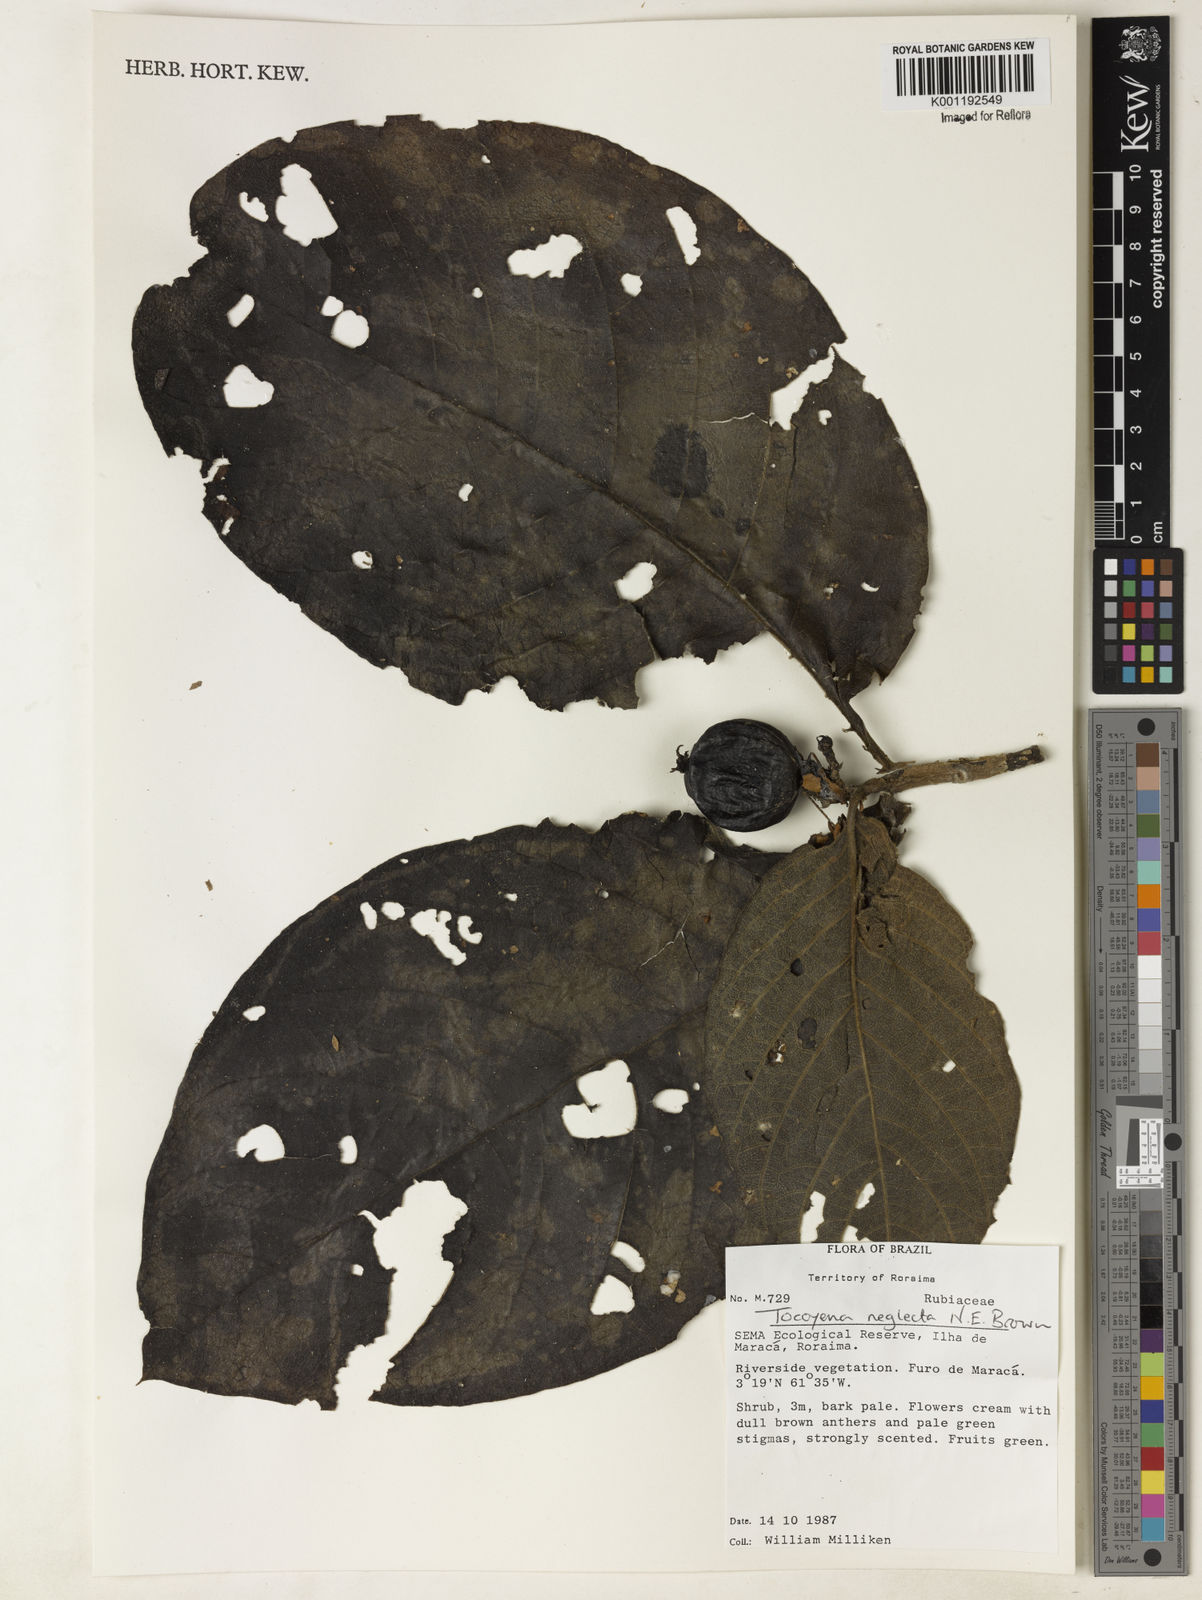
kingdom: Plantae
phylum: Tracheophyta
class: Magnoliopsida
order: Gentianales
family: Rubiaceae
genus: Tocoyena
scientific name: Tocoyena neglecta
